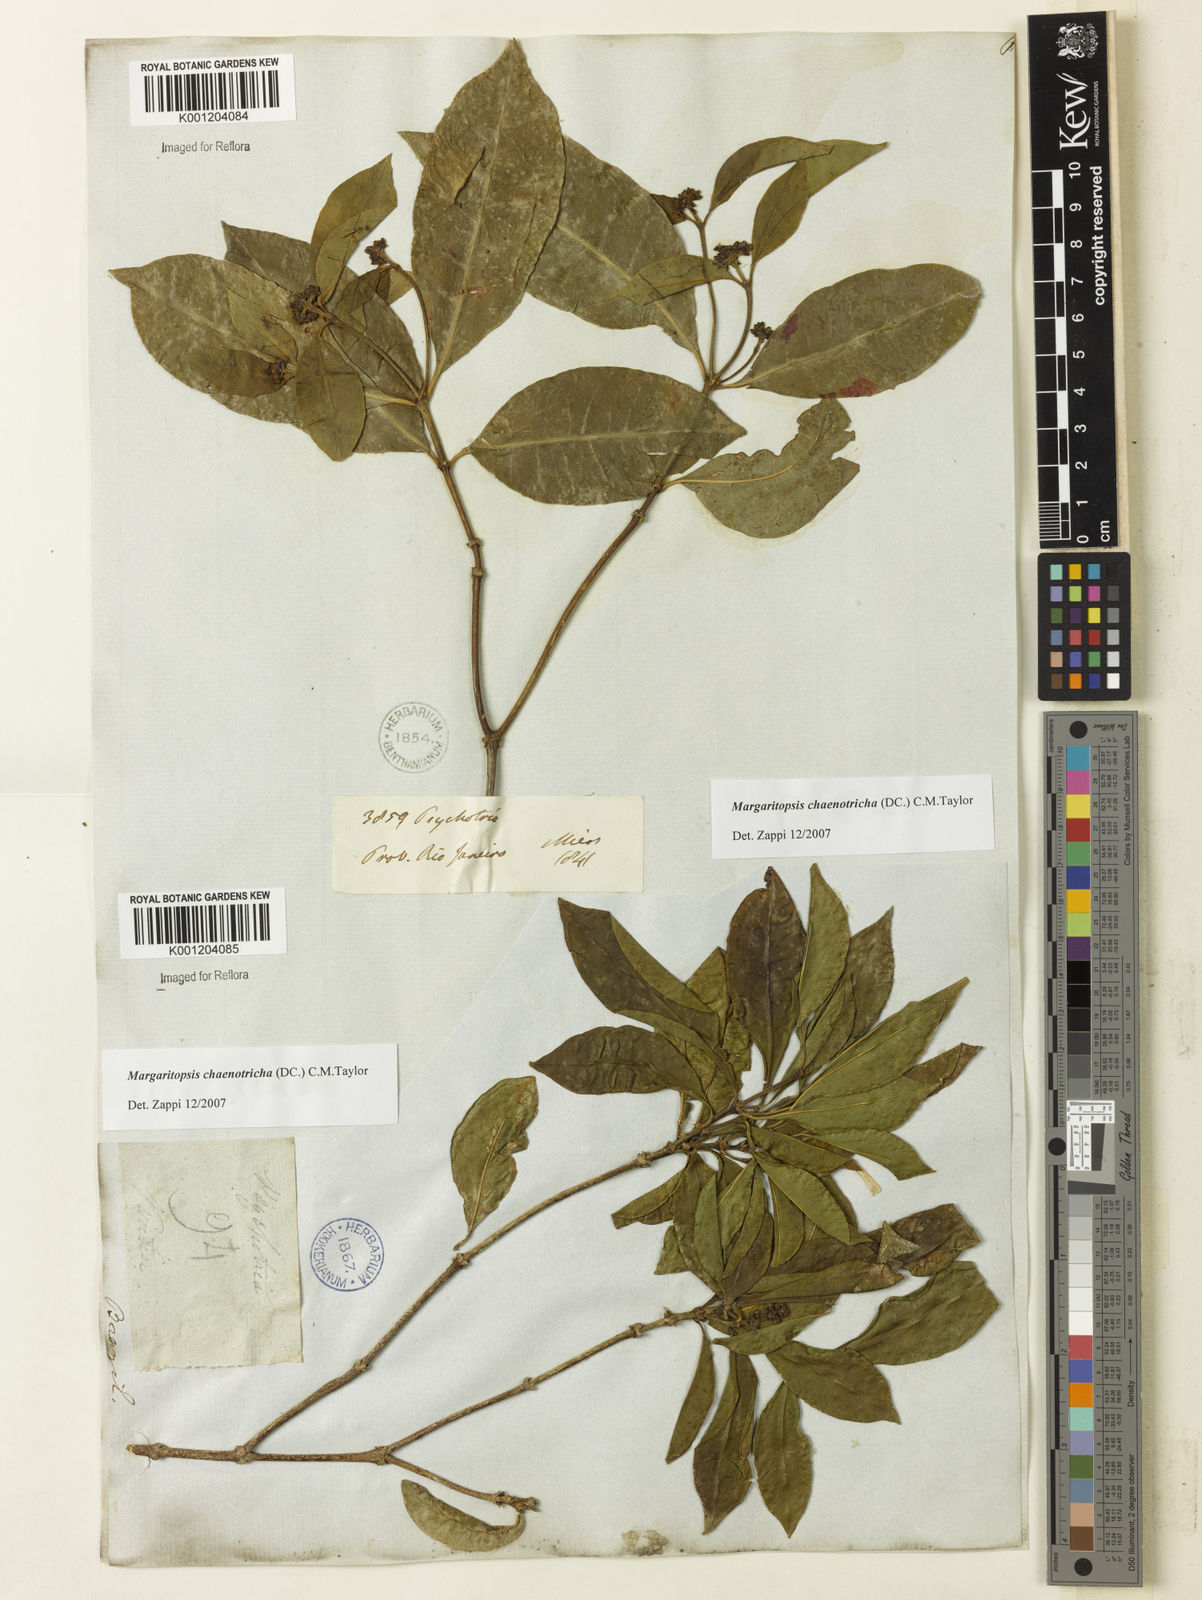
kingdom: Plantae
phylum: Tracheophyta
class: Magnoliopsida
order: Gentianales
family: Rubiaceae
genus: Eumachia
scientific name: Eumachia chaenotricha
